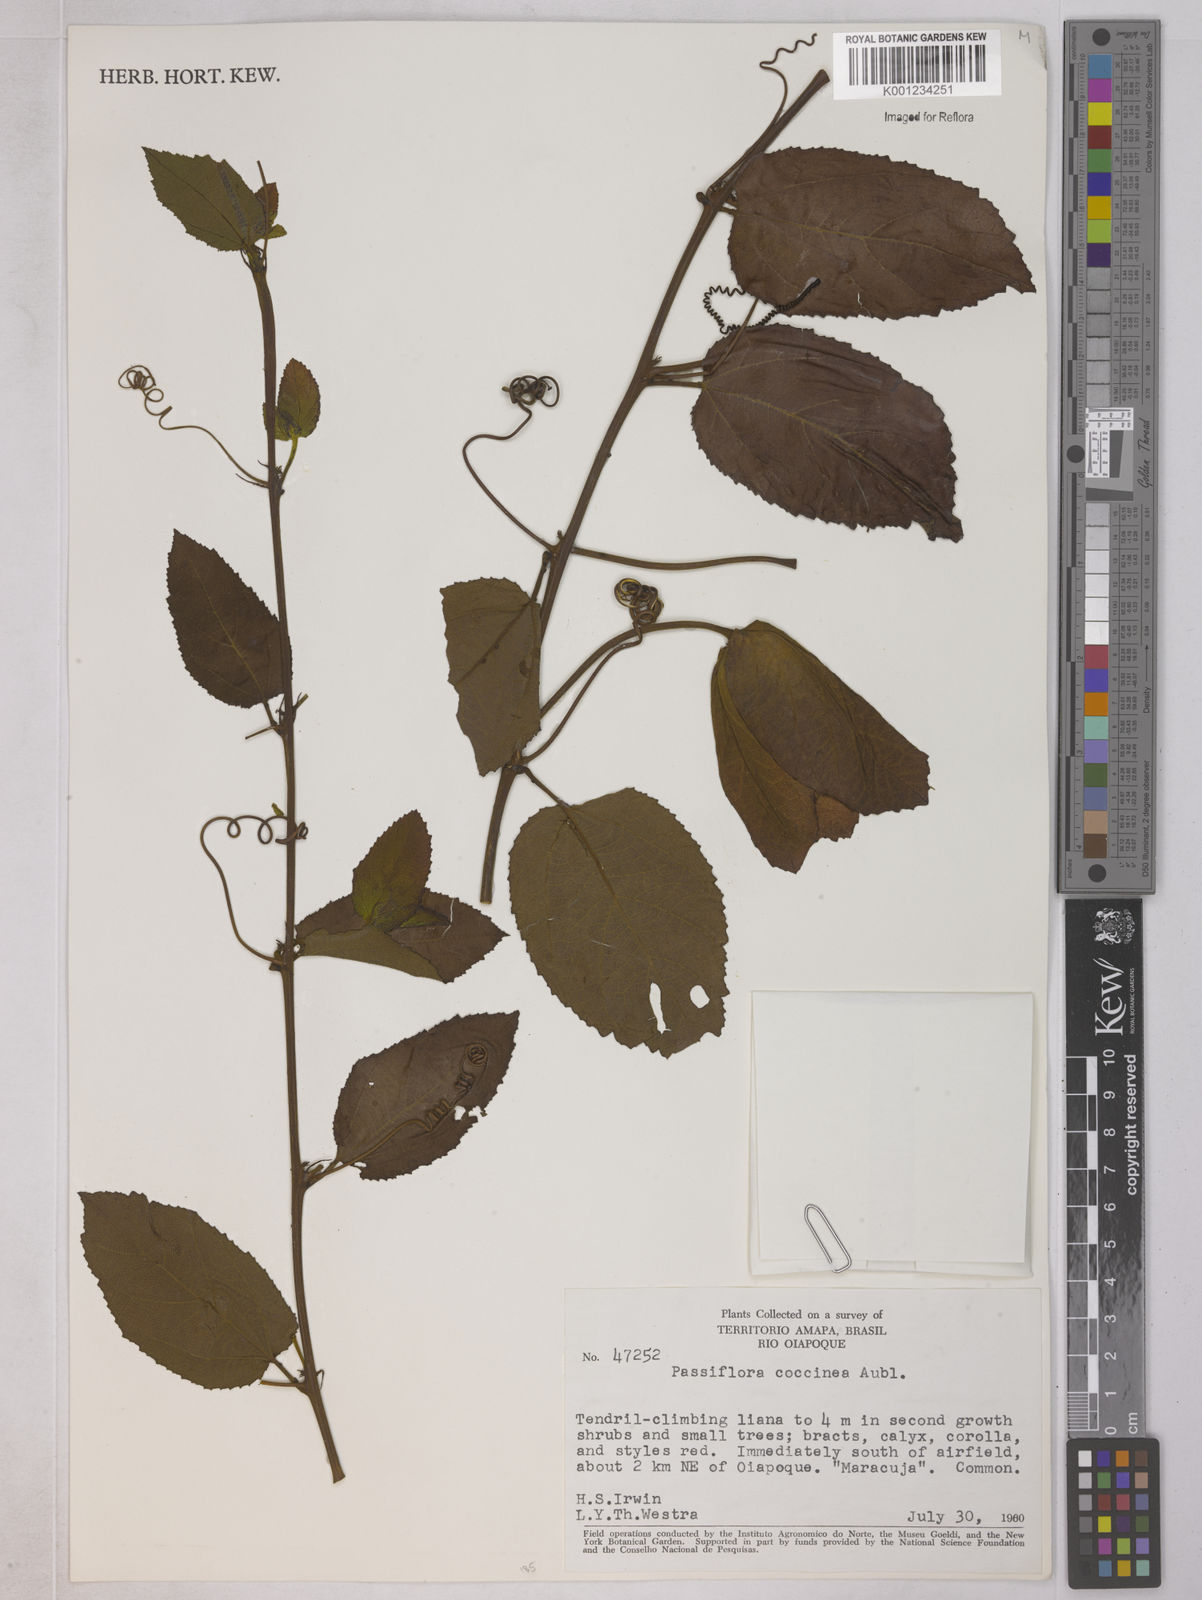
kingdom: Plantae
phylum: Tracheophyta
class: Magnoliopsida
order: Malpighiales
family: Passifloraceae
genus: Passiflora
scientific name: Passiflora coccinea
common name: Scarlet passionflower
